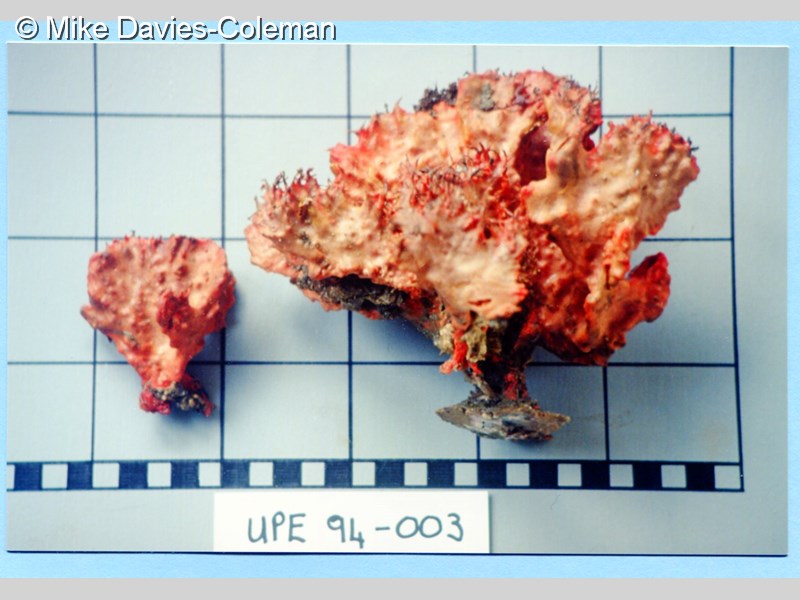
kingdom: Animalia
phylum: Porifera
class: Demospongiae
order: Poecilosclerida
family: Microcionidae
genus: Clathria
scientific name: Clathria
